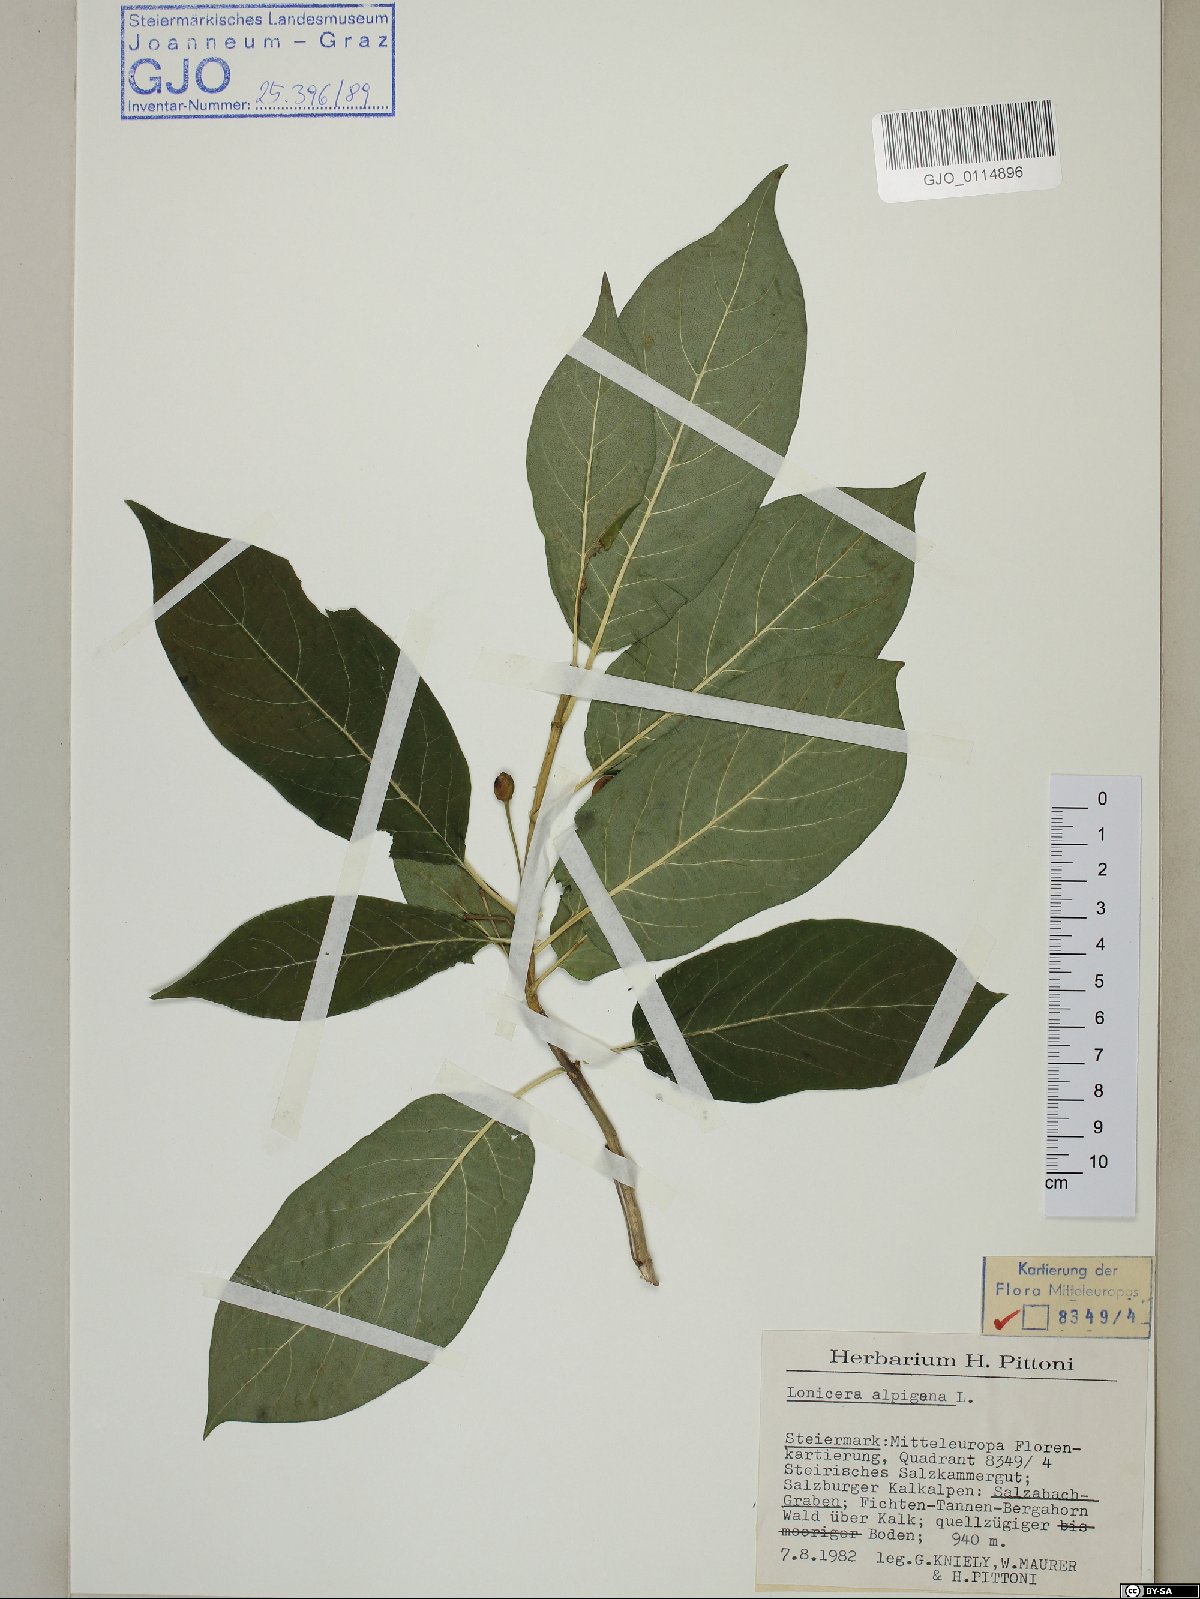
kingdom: Plantae
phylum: Tracheophyta
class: Magnoliopsida
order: Dipsacales
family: Caprifoliaceae
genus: Lonicera
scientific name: Lonicera alpigena
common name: Alpine honeysuckle
